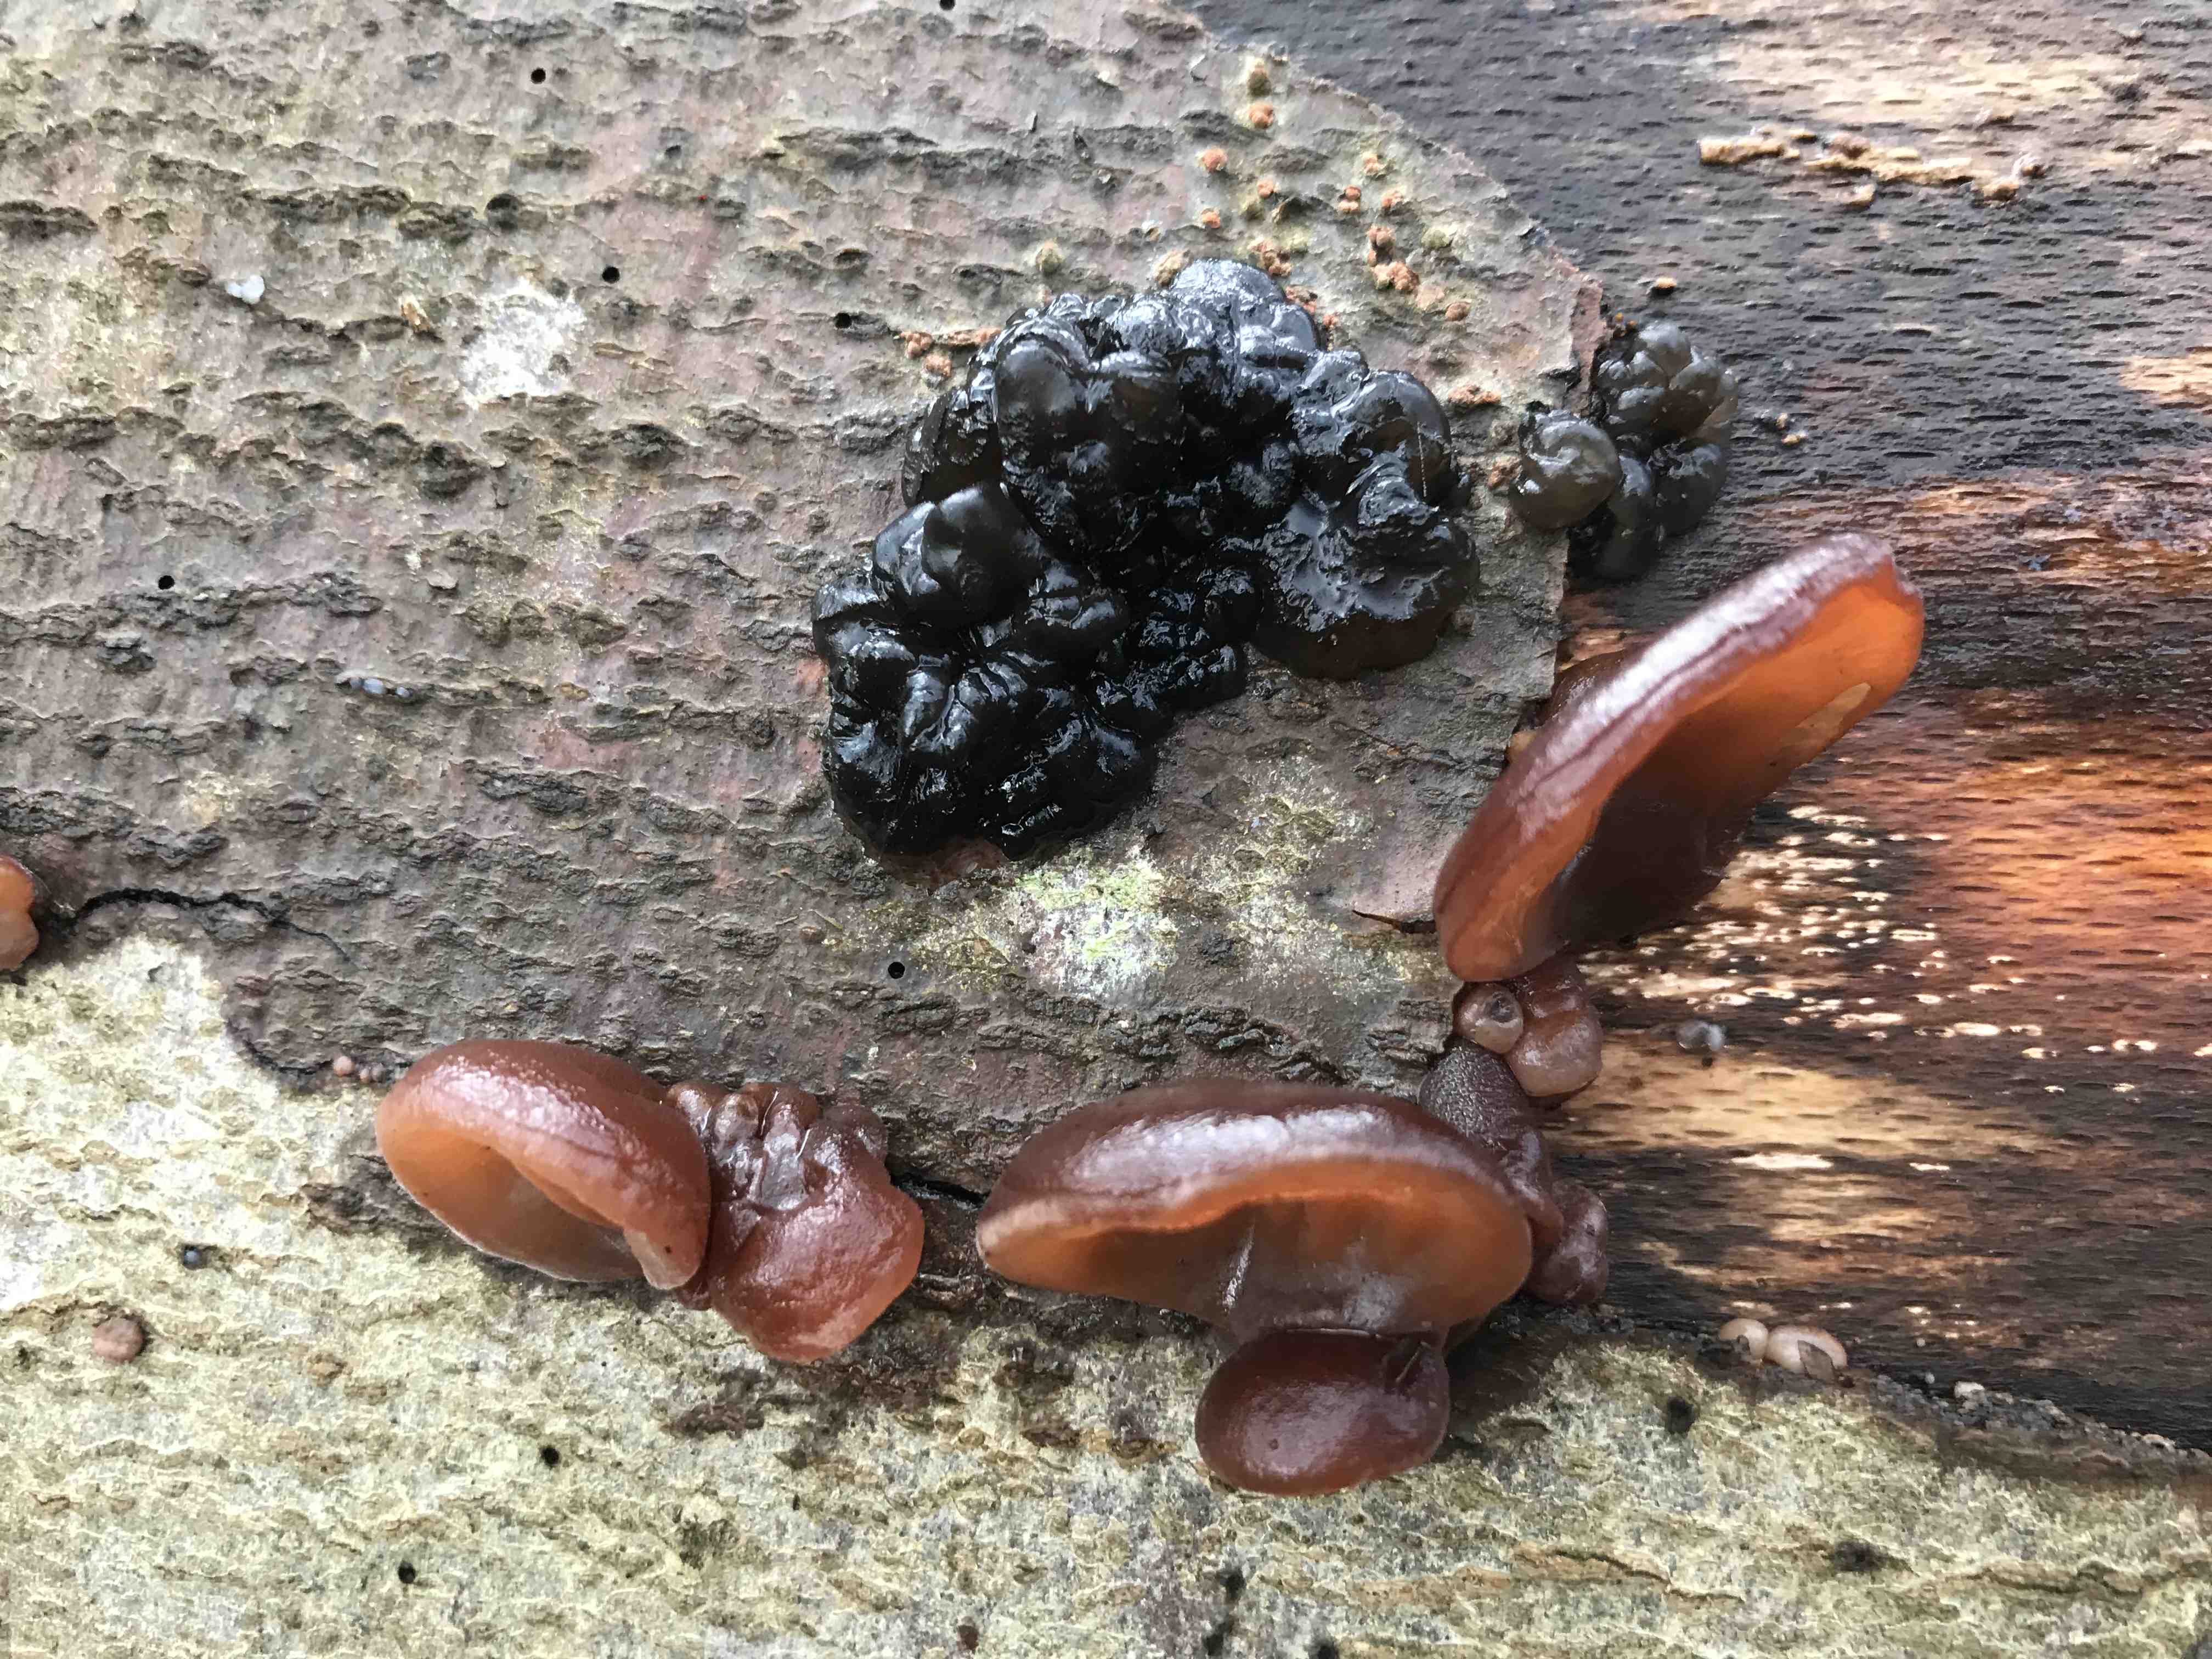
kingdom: Fungi
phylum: Basidiomycota
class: Agaricomycetes
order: Auriculariales
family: Auriculariaceae
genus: Auricularia
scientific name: Auricularia auricula-judae
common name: almindelig judasøre
